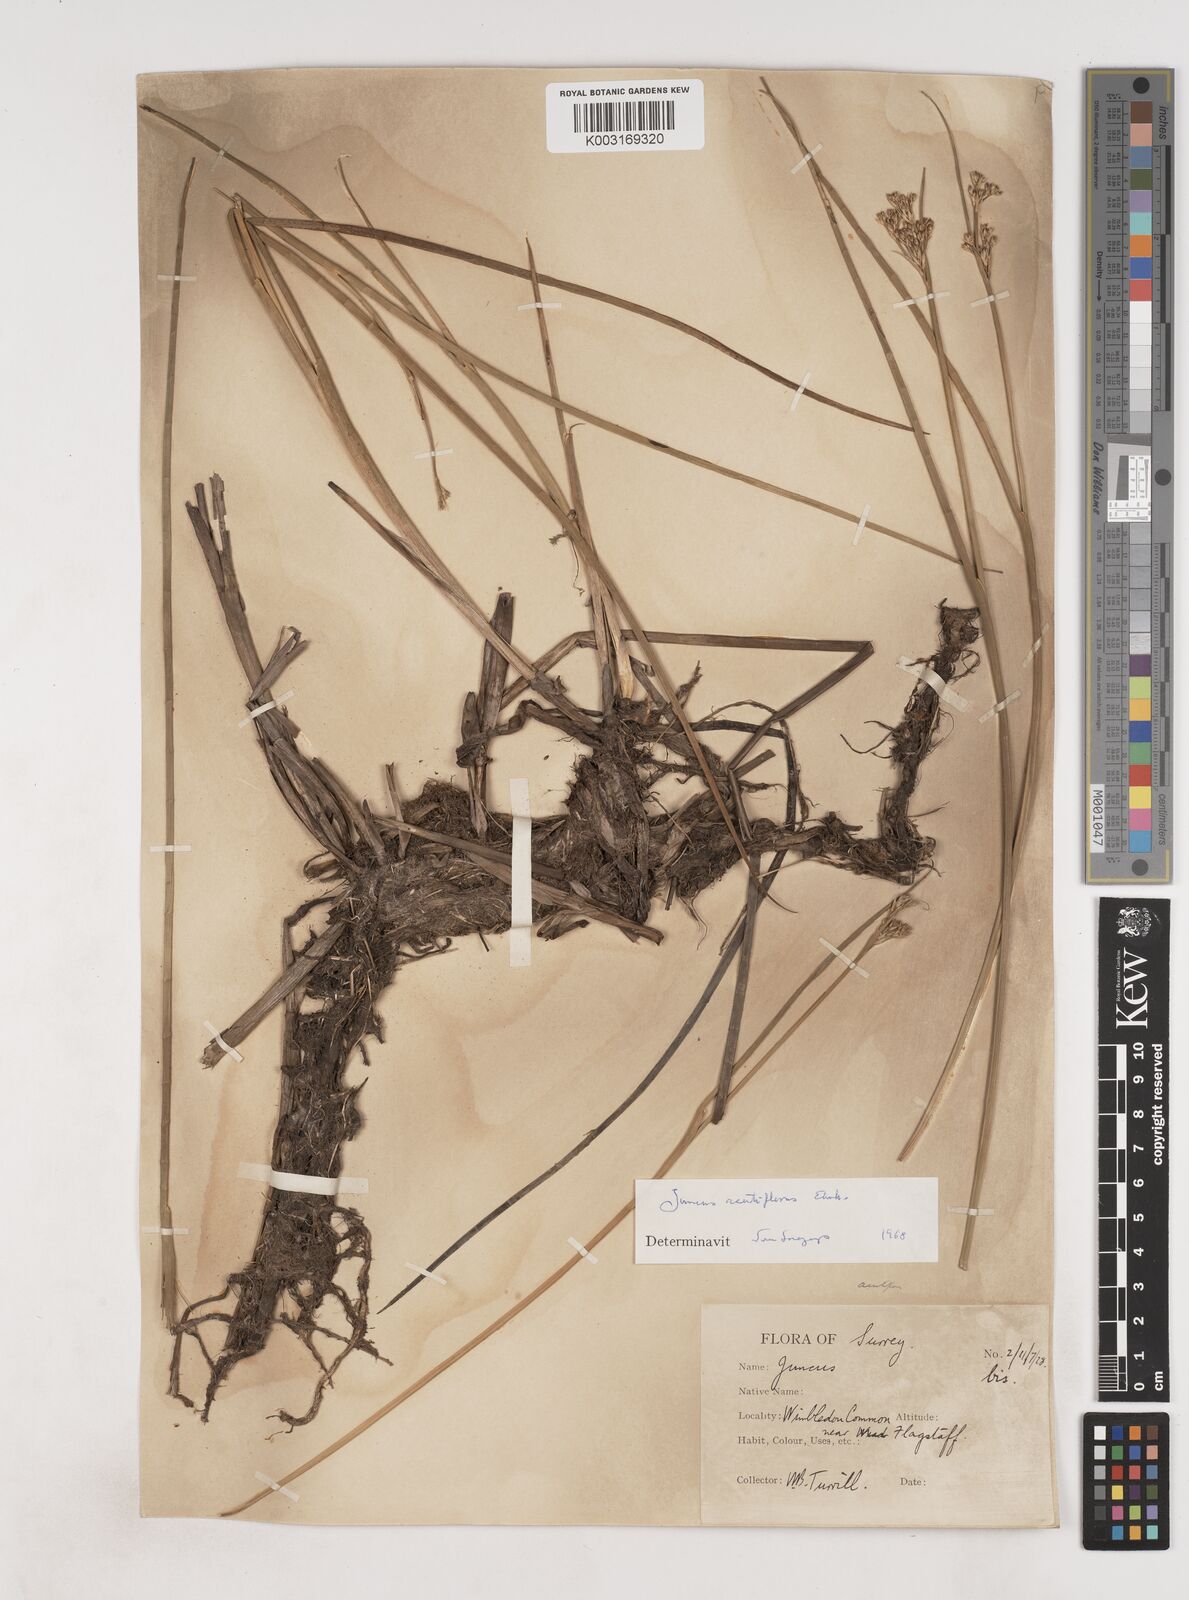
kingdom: Plantae
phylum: Tracheophyta
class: Liliopsida
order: Poales
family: Juncaceae
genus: Juncus
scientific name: Juncus acutiflorus
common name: Sharp-flowered rush
